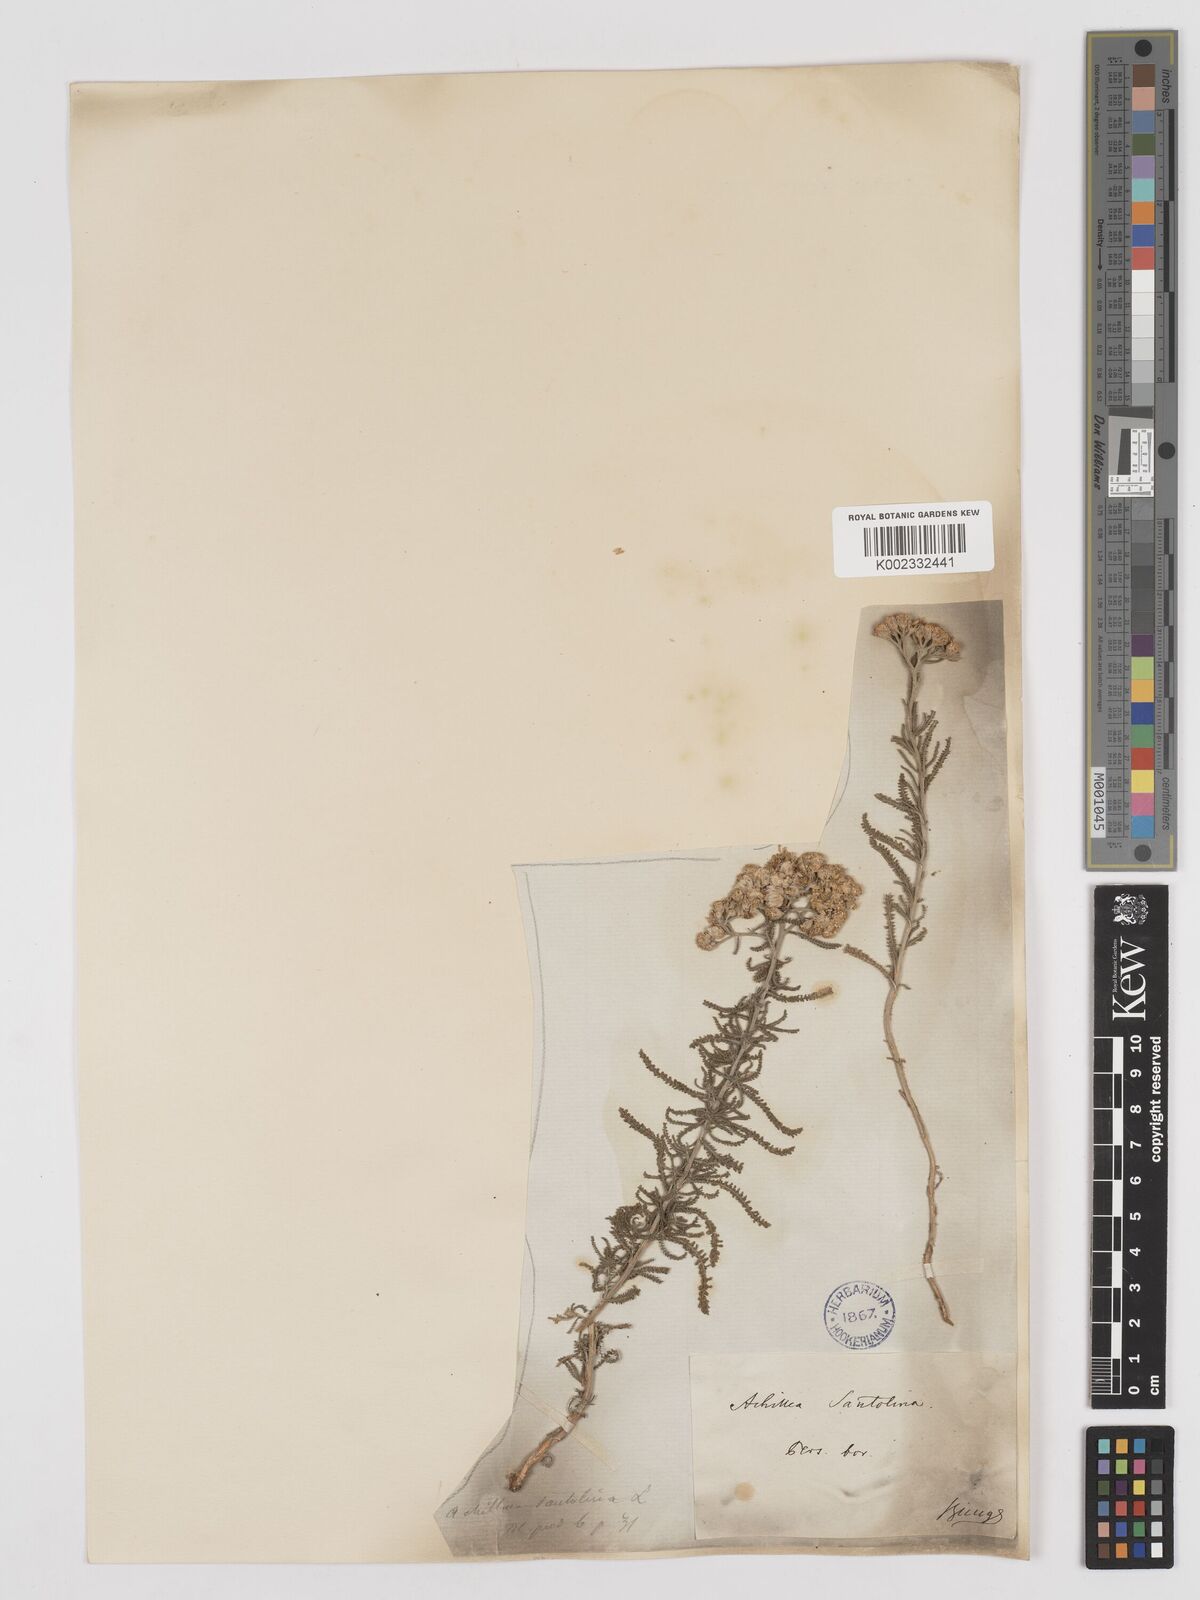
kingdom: Plantae
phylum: Tracheophyta
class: Magnoliopsida
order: Asterales
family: Asteraceae
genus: Achillea
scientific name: Achillea tenuifolia
